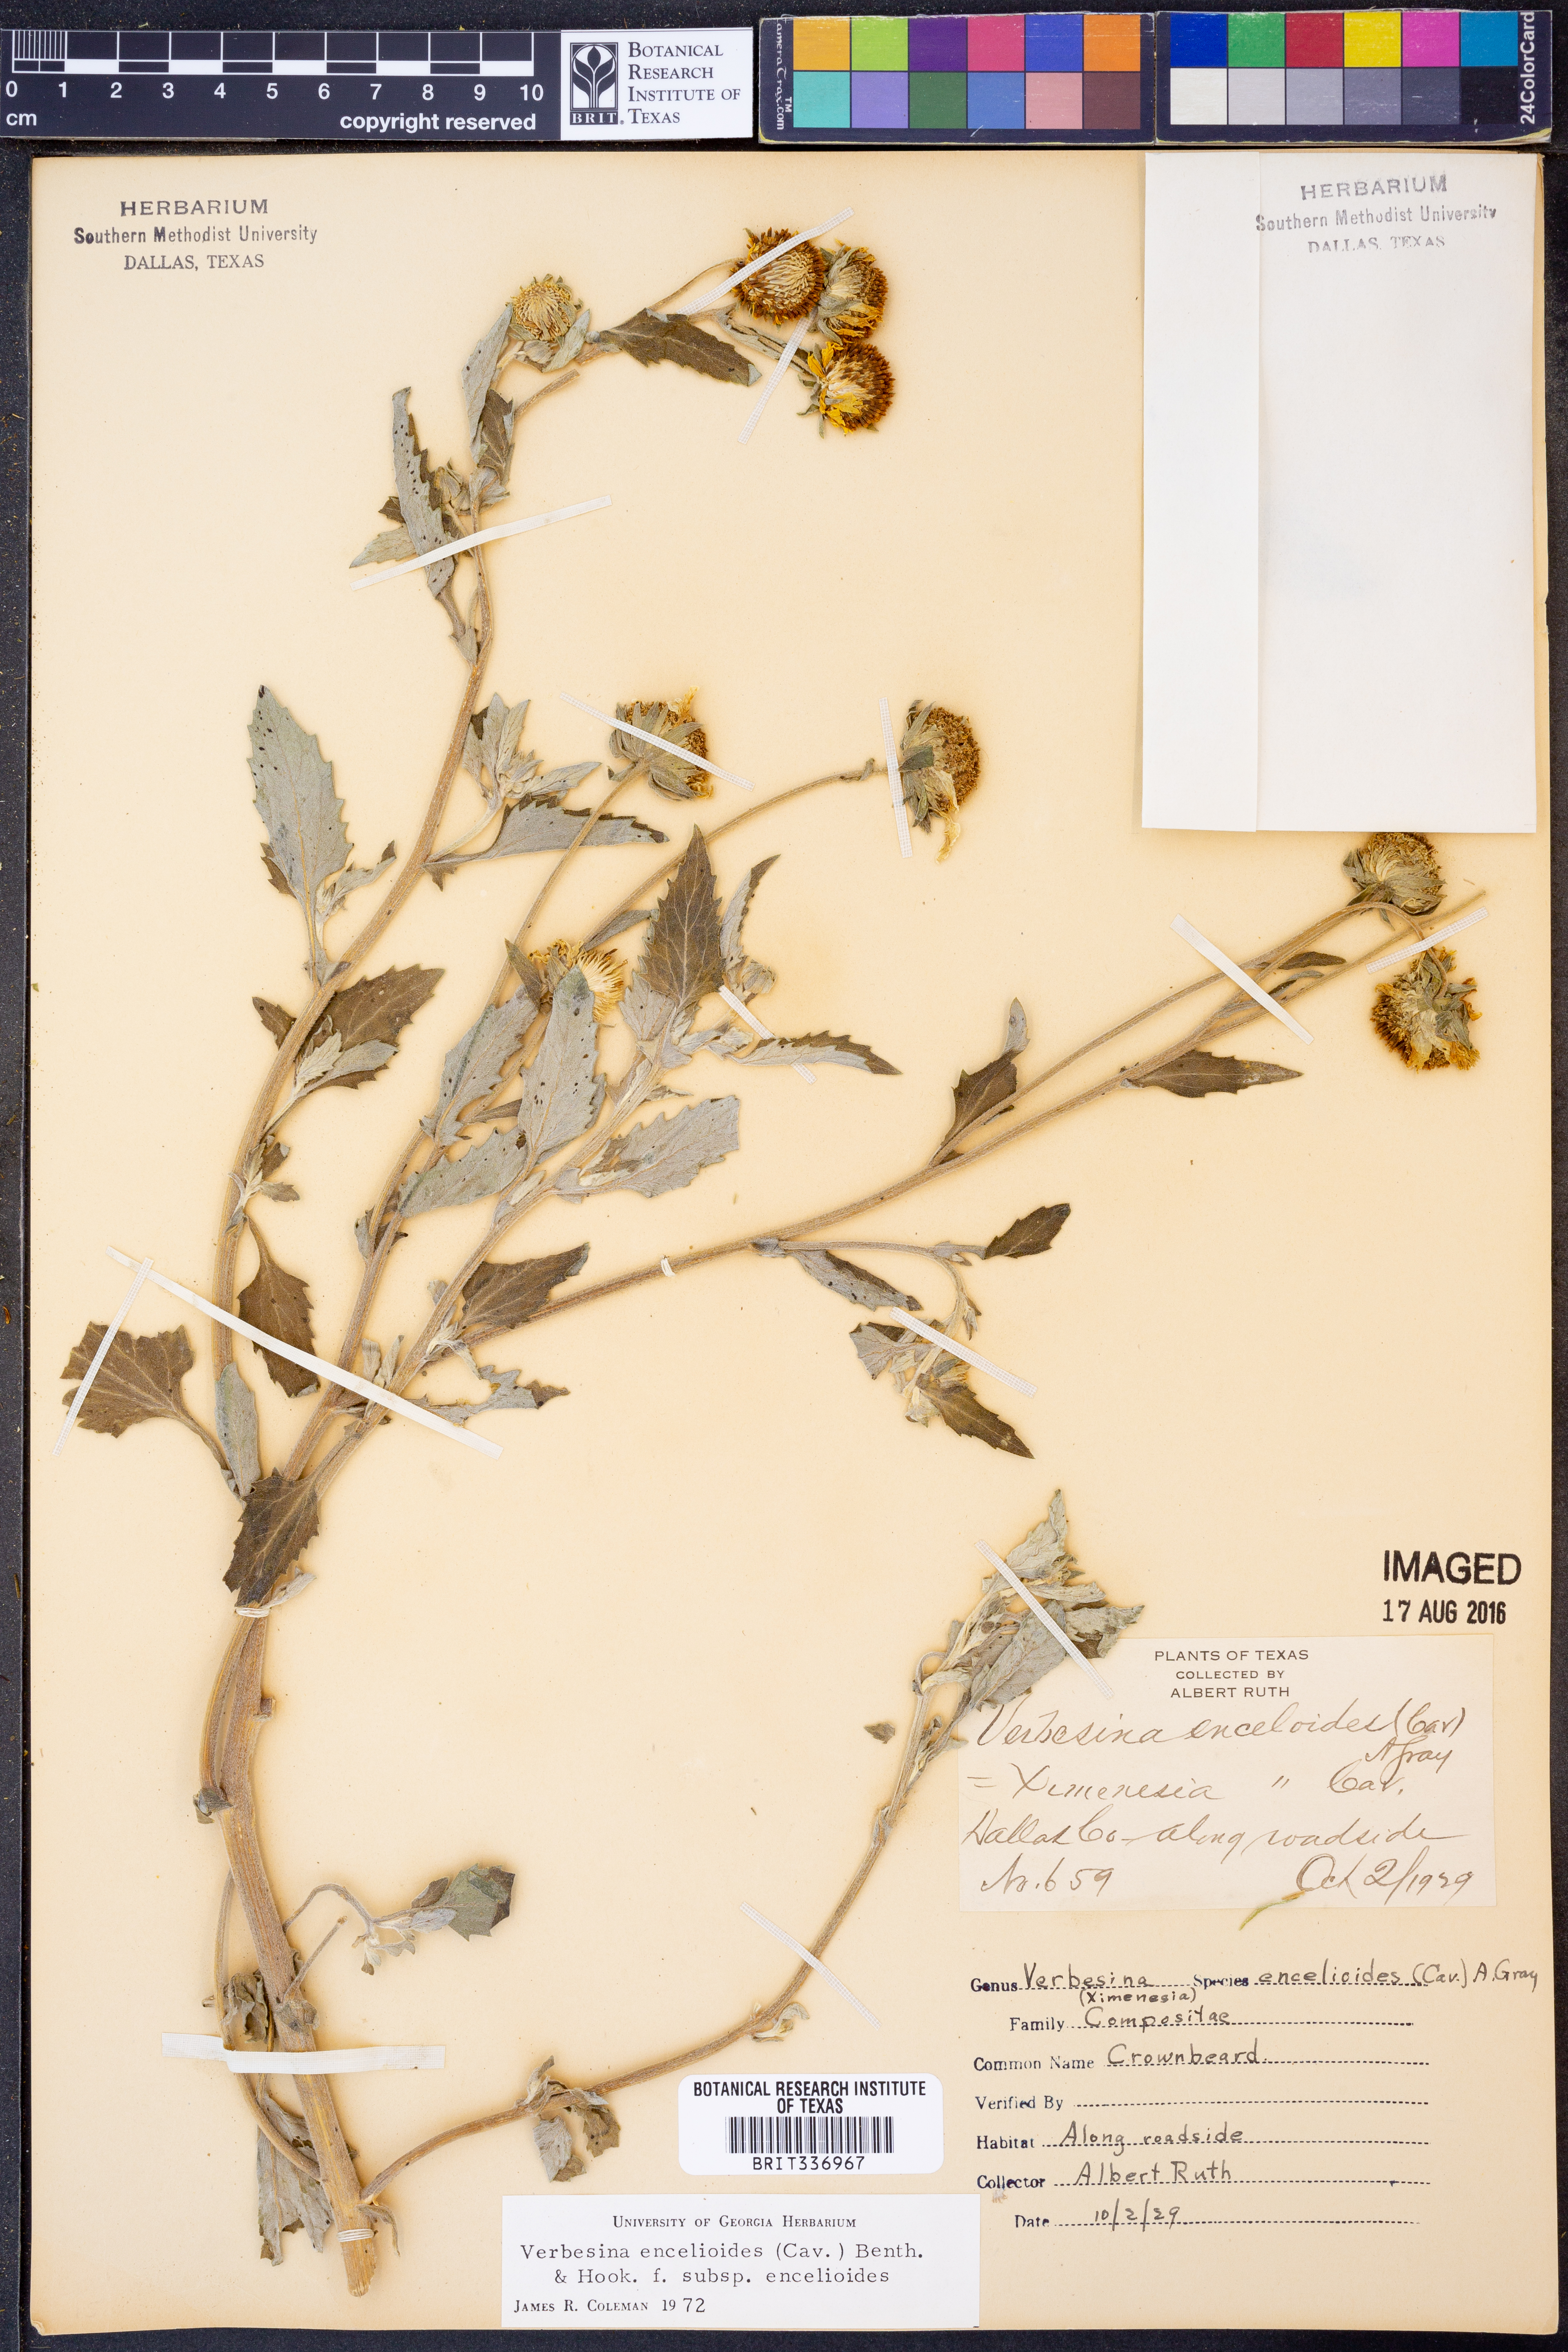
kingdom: Plantae
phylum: Tracheophyta
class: Magnoliopsida
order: Asterales
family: Asteraceae
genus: Verbesina
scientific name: Verbesina encelioides
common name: Golden crownbeard
